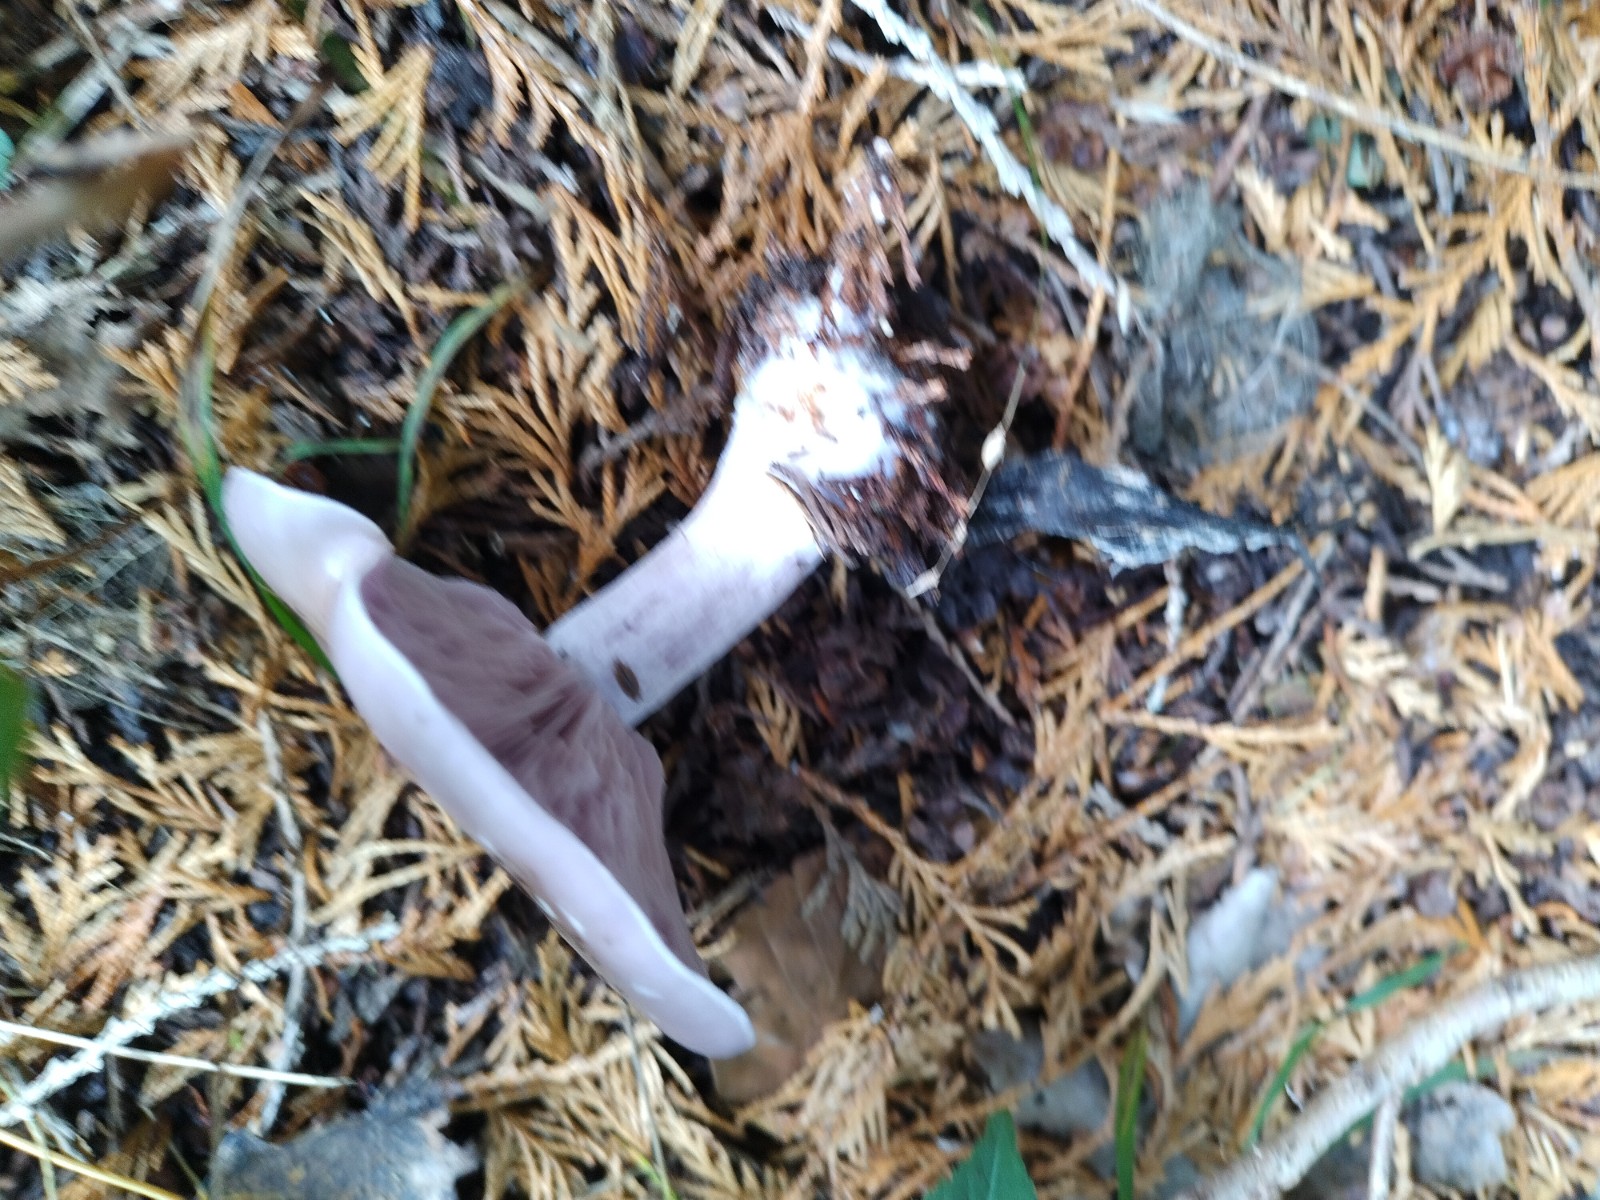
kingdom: Fungi
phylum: Basidiomycota
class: Agaricomycetes
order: Agaricales
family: Tricholomataceae
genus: Lepista
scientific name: Lepista nuda
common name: violet hekseringshat
